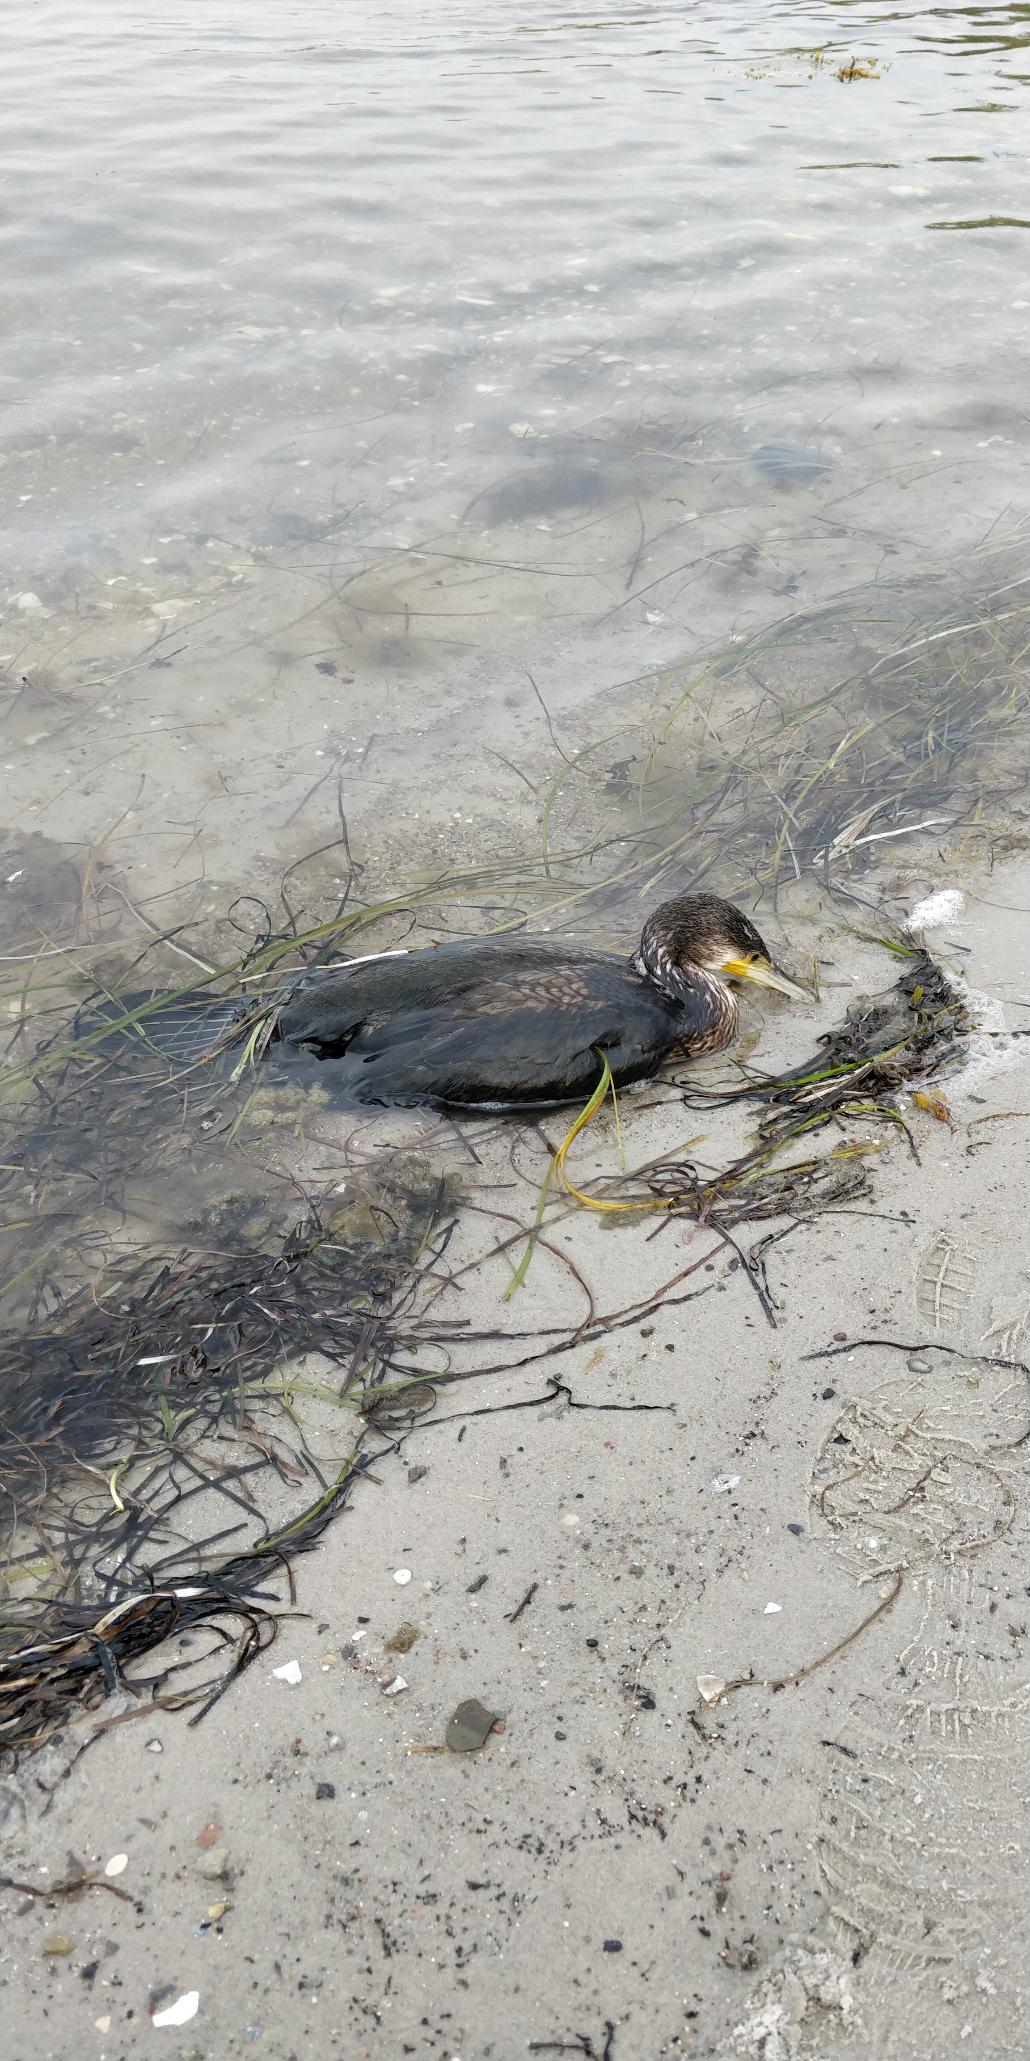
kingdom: Animalia
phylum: Chordata
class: Aves
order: Suliformes
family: Phalacrocoracidae
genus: Phalacrocorax
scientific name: Phalacrocorax carbo
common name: Skarv
